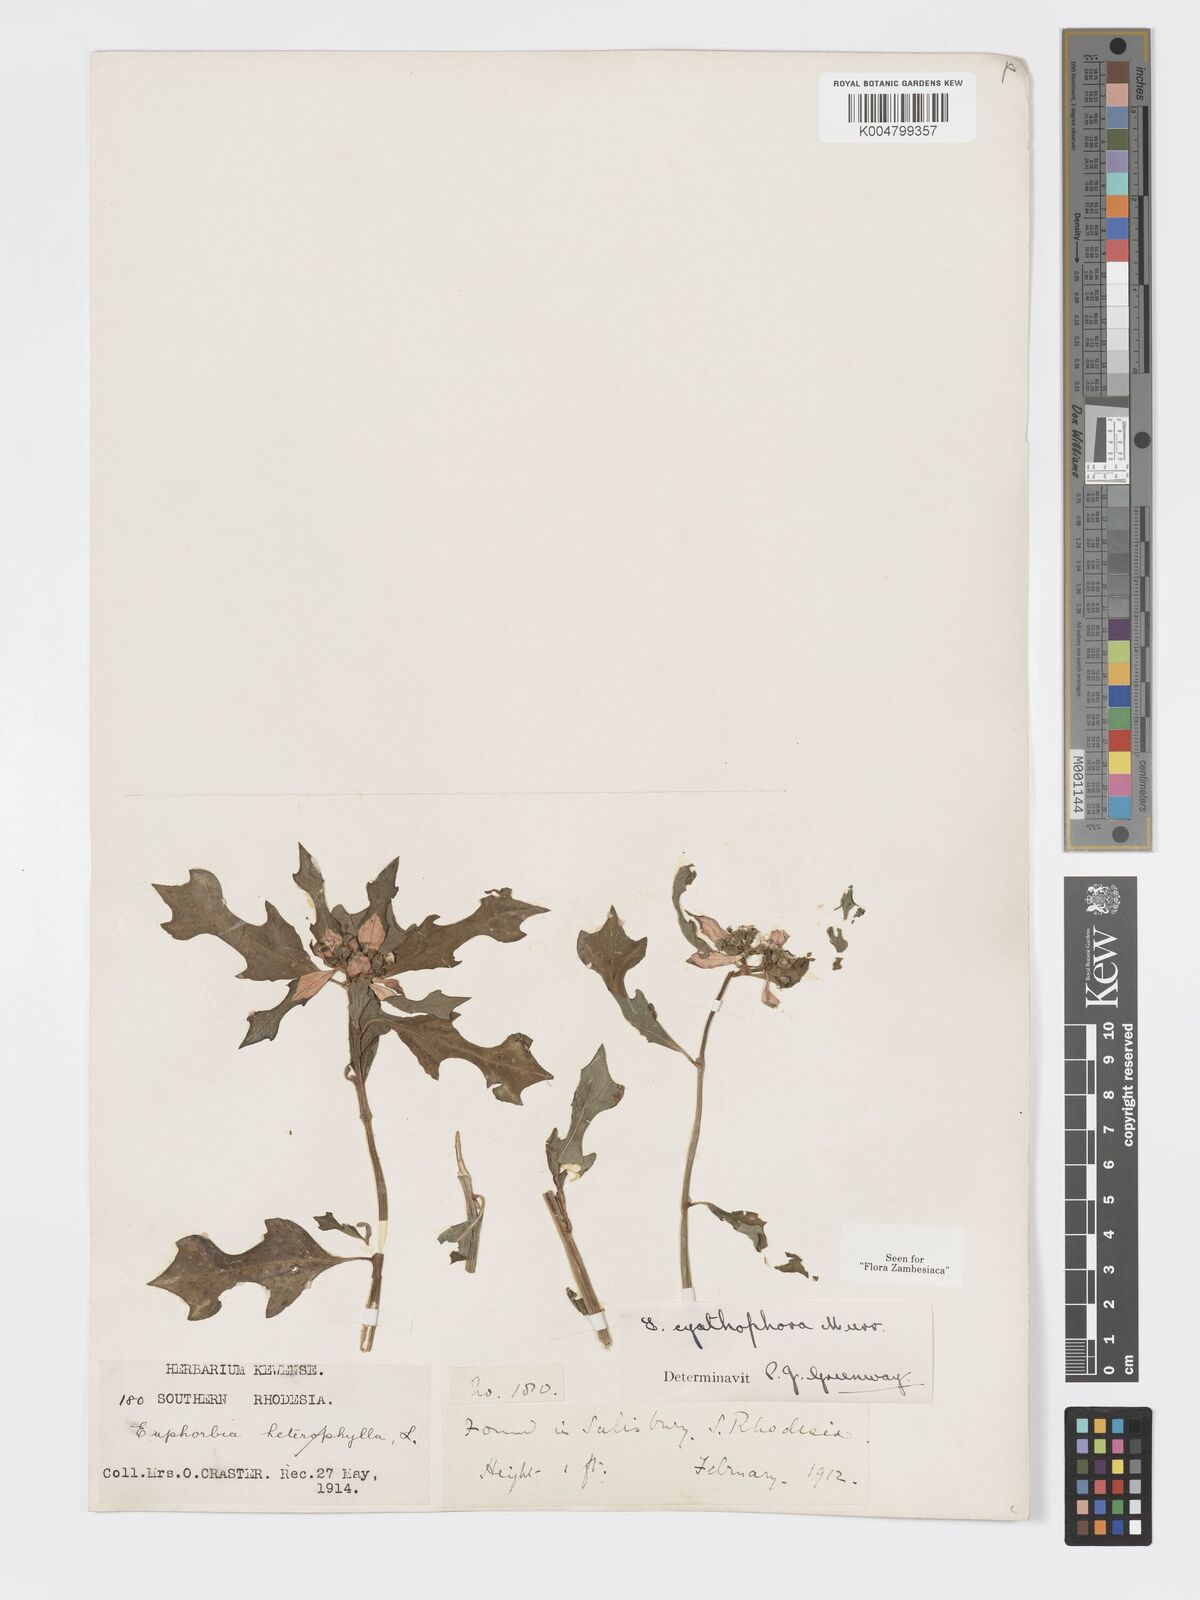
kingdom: Plantae
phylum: Tracheophyta
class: Magnoliopsida
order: Malpighiales
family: Euphorbiaceae
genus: Euphorbia
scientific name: Euphorbia heterophylla
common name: Mexican fireplant
